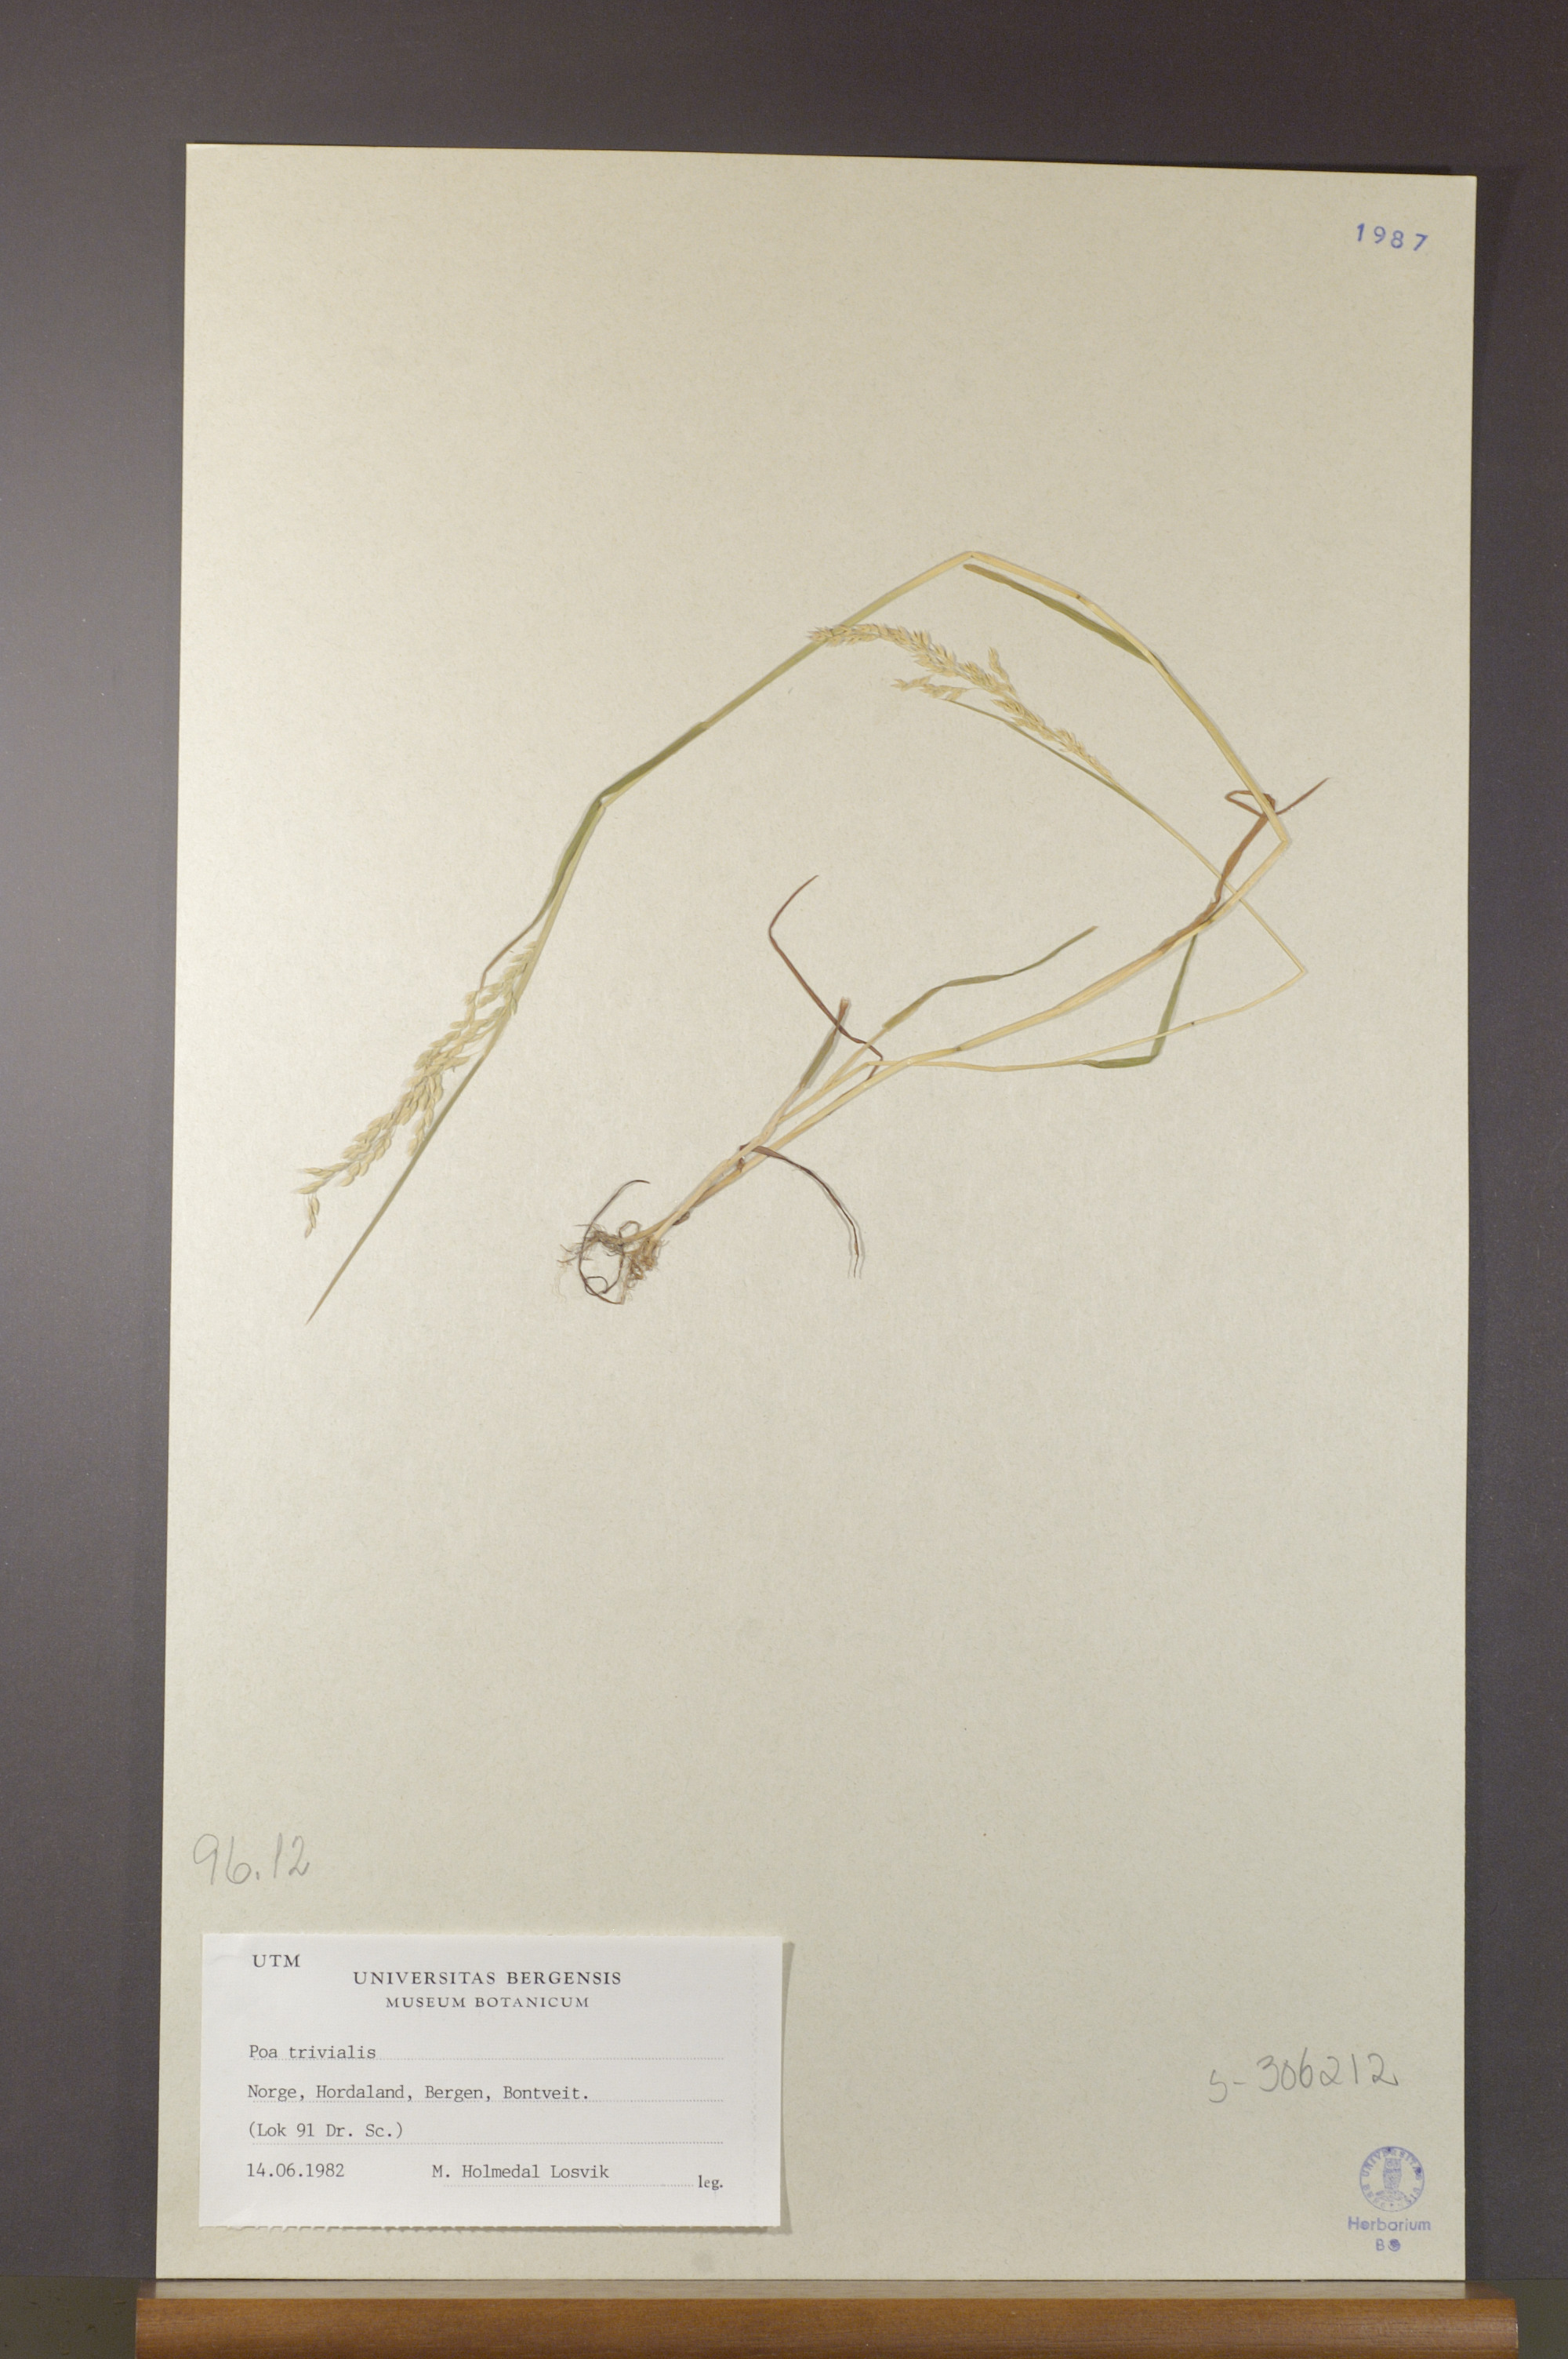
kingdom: Plantae
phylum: Tracheophyta
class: Liliopsida
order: Poales
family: Poaceae
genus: Poa
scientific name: Poa trivialis
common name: Rough bluegrass
